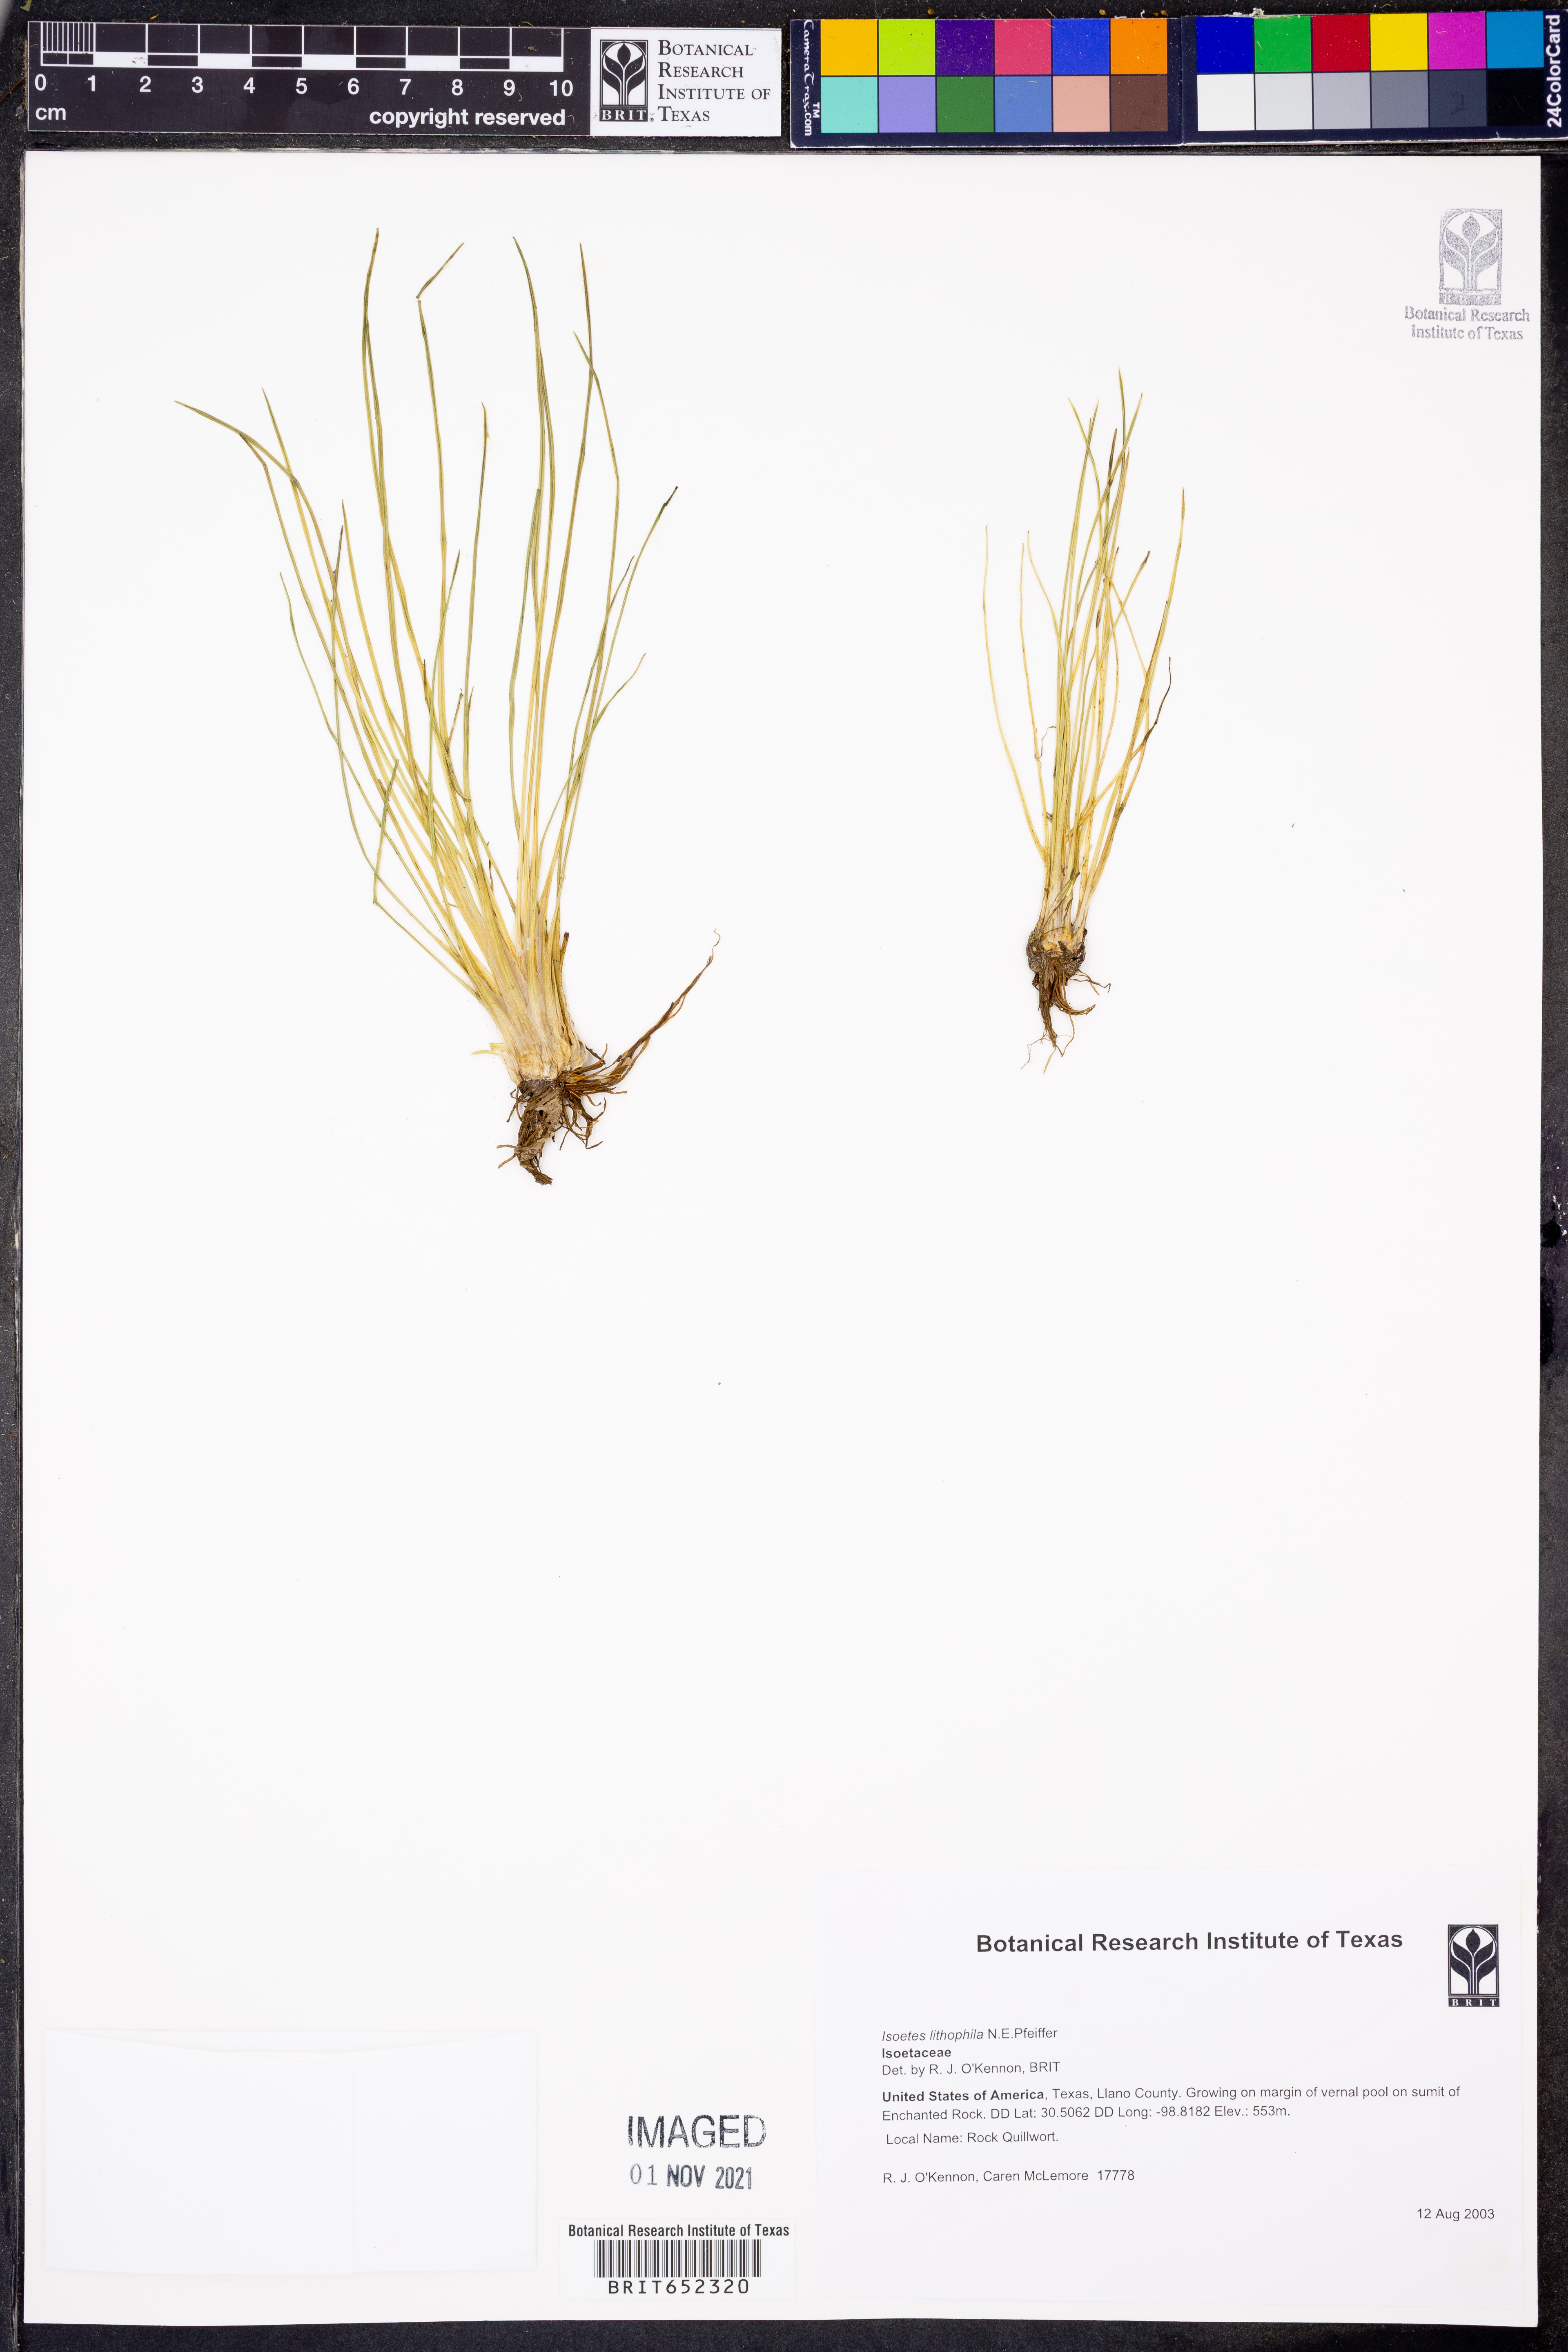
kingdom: Plantae
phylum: Tracheophyta
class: Lycopodiopsida
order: Isoetales
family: Isoetaceae
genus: Isoetes
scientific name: Isoetes lithophila
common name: Rock quillwort
